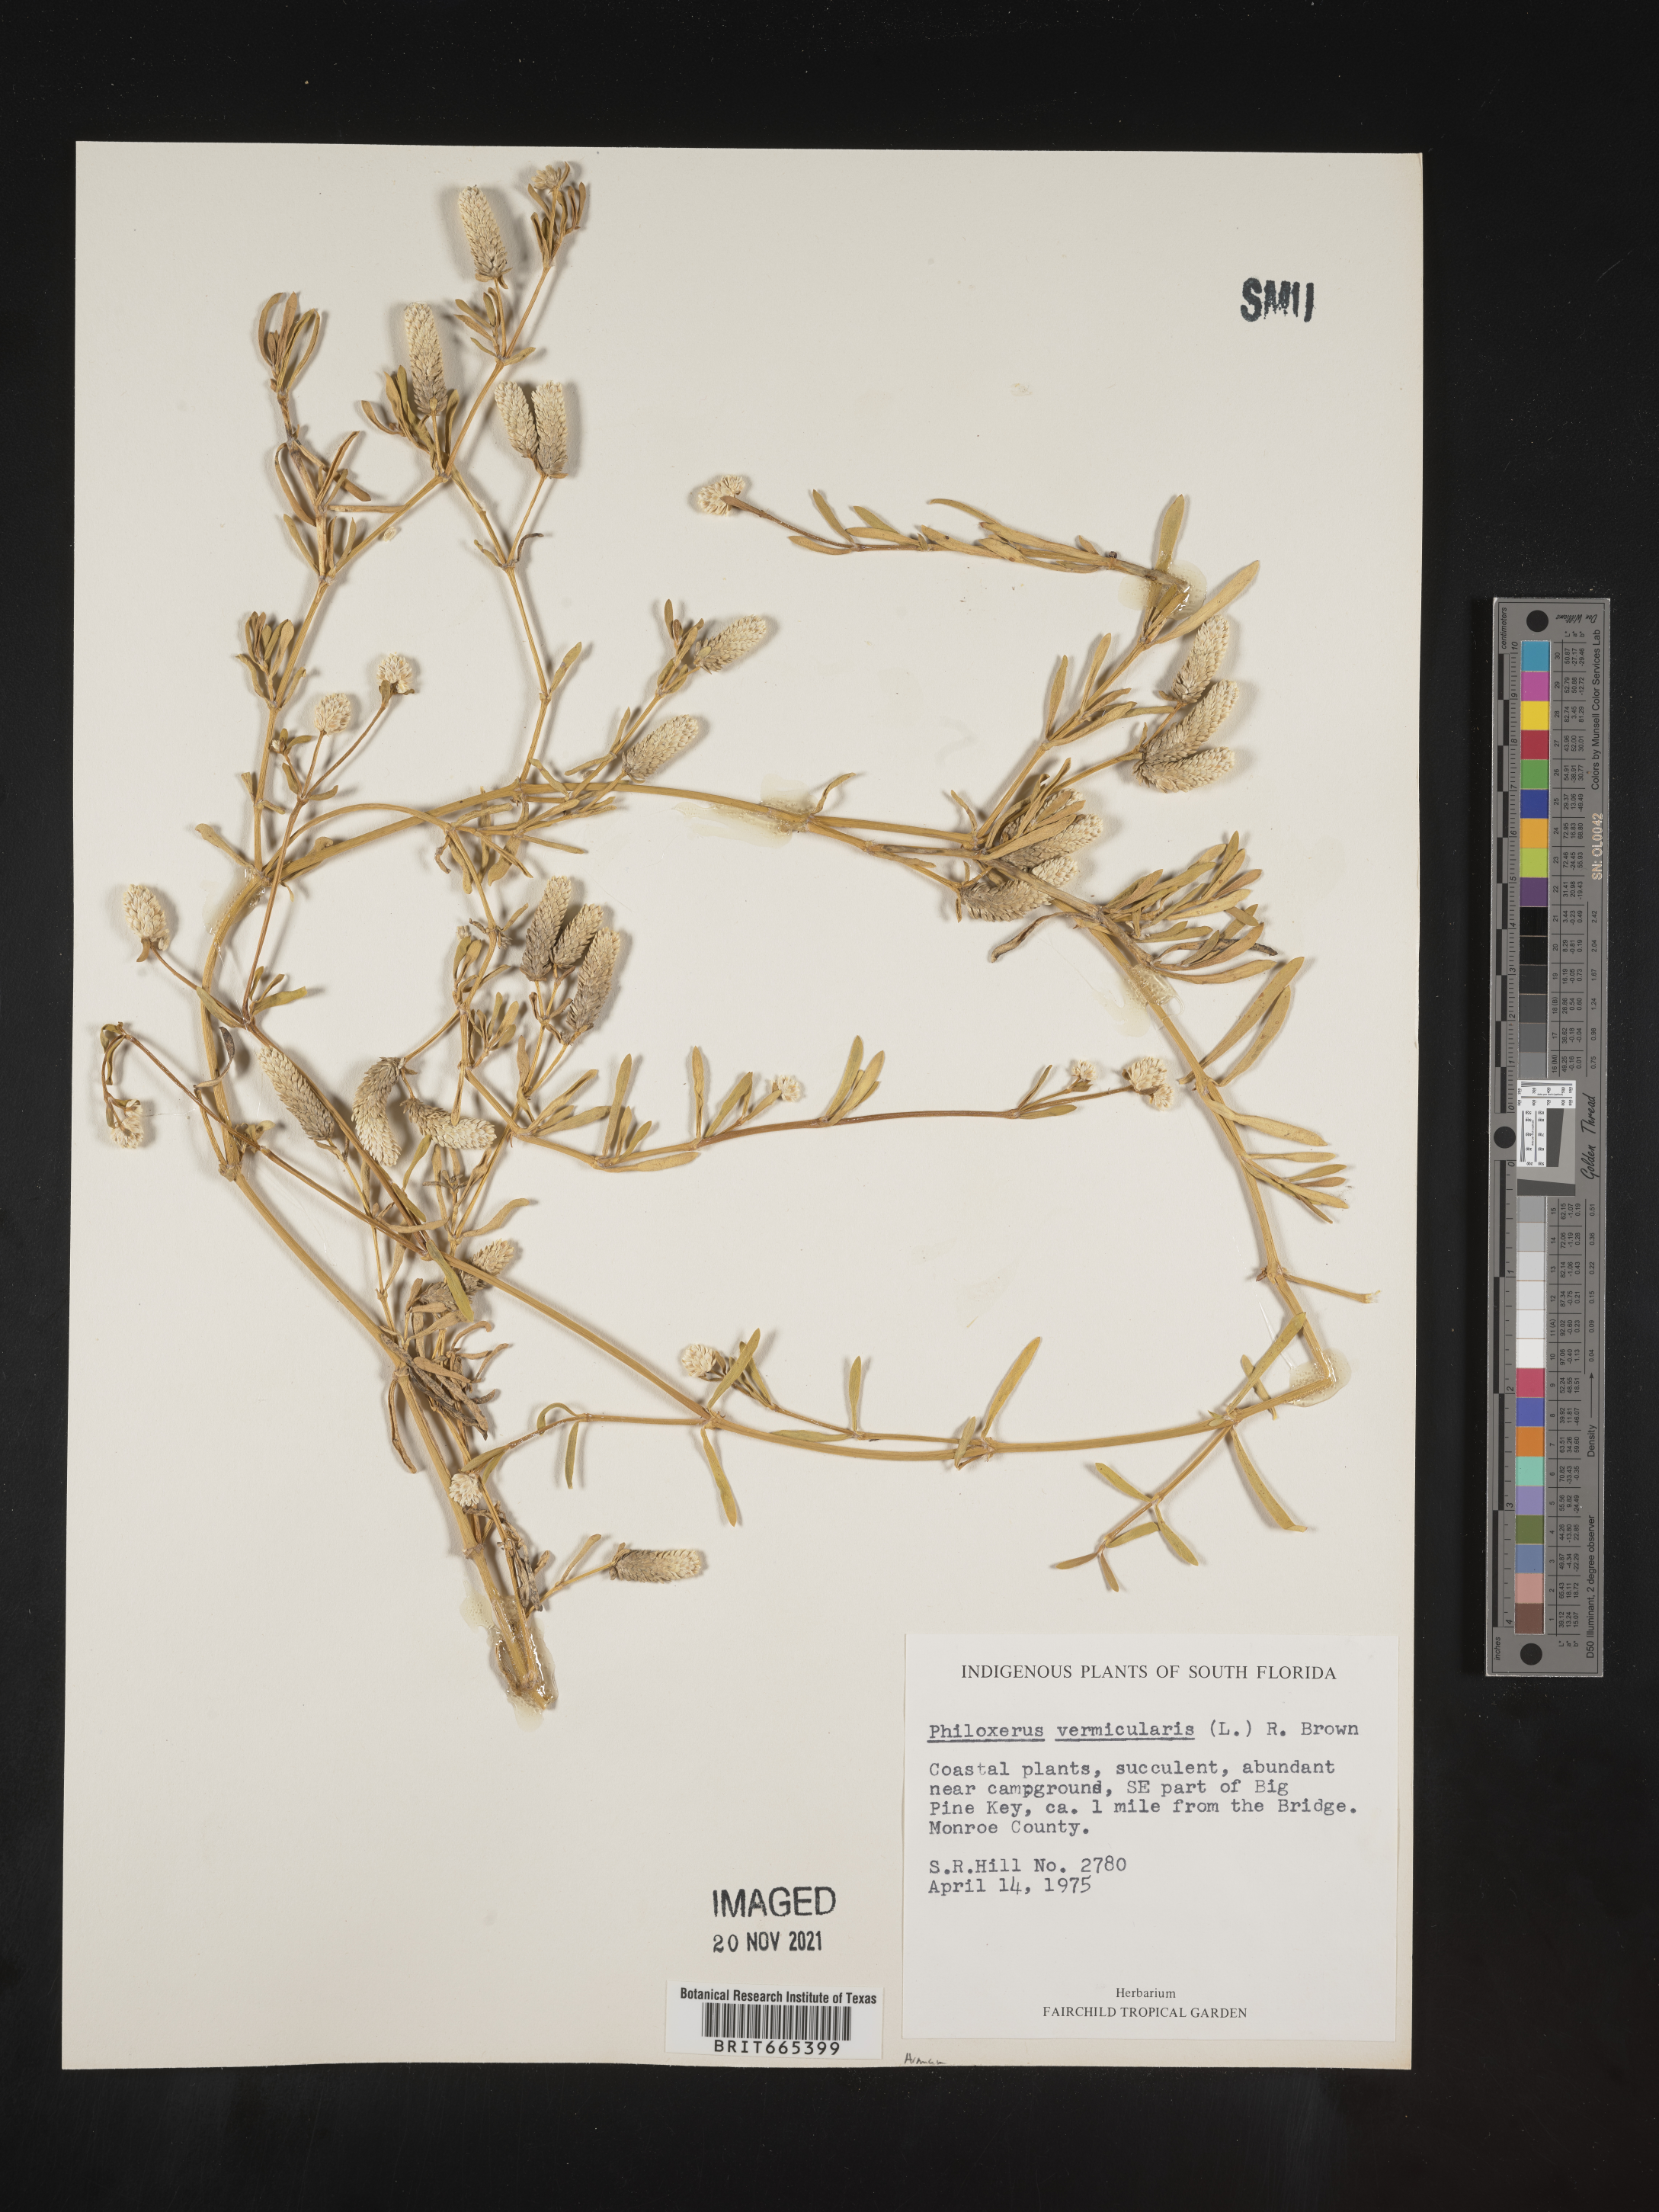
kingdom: Plantae
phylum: Tracheophyta
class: Magnoliopsida
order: Caryophyllales
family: Amaranthaceae
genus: Gomphrena
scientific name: Gomphrena
